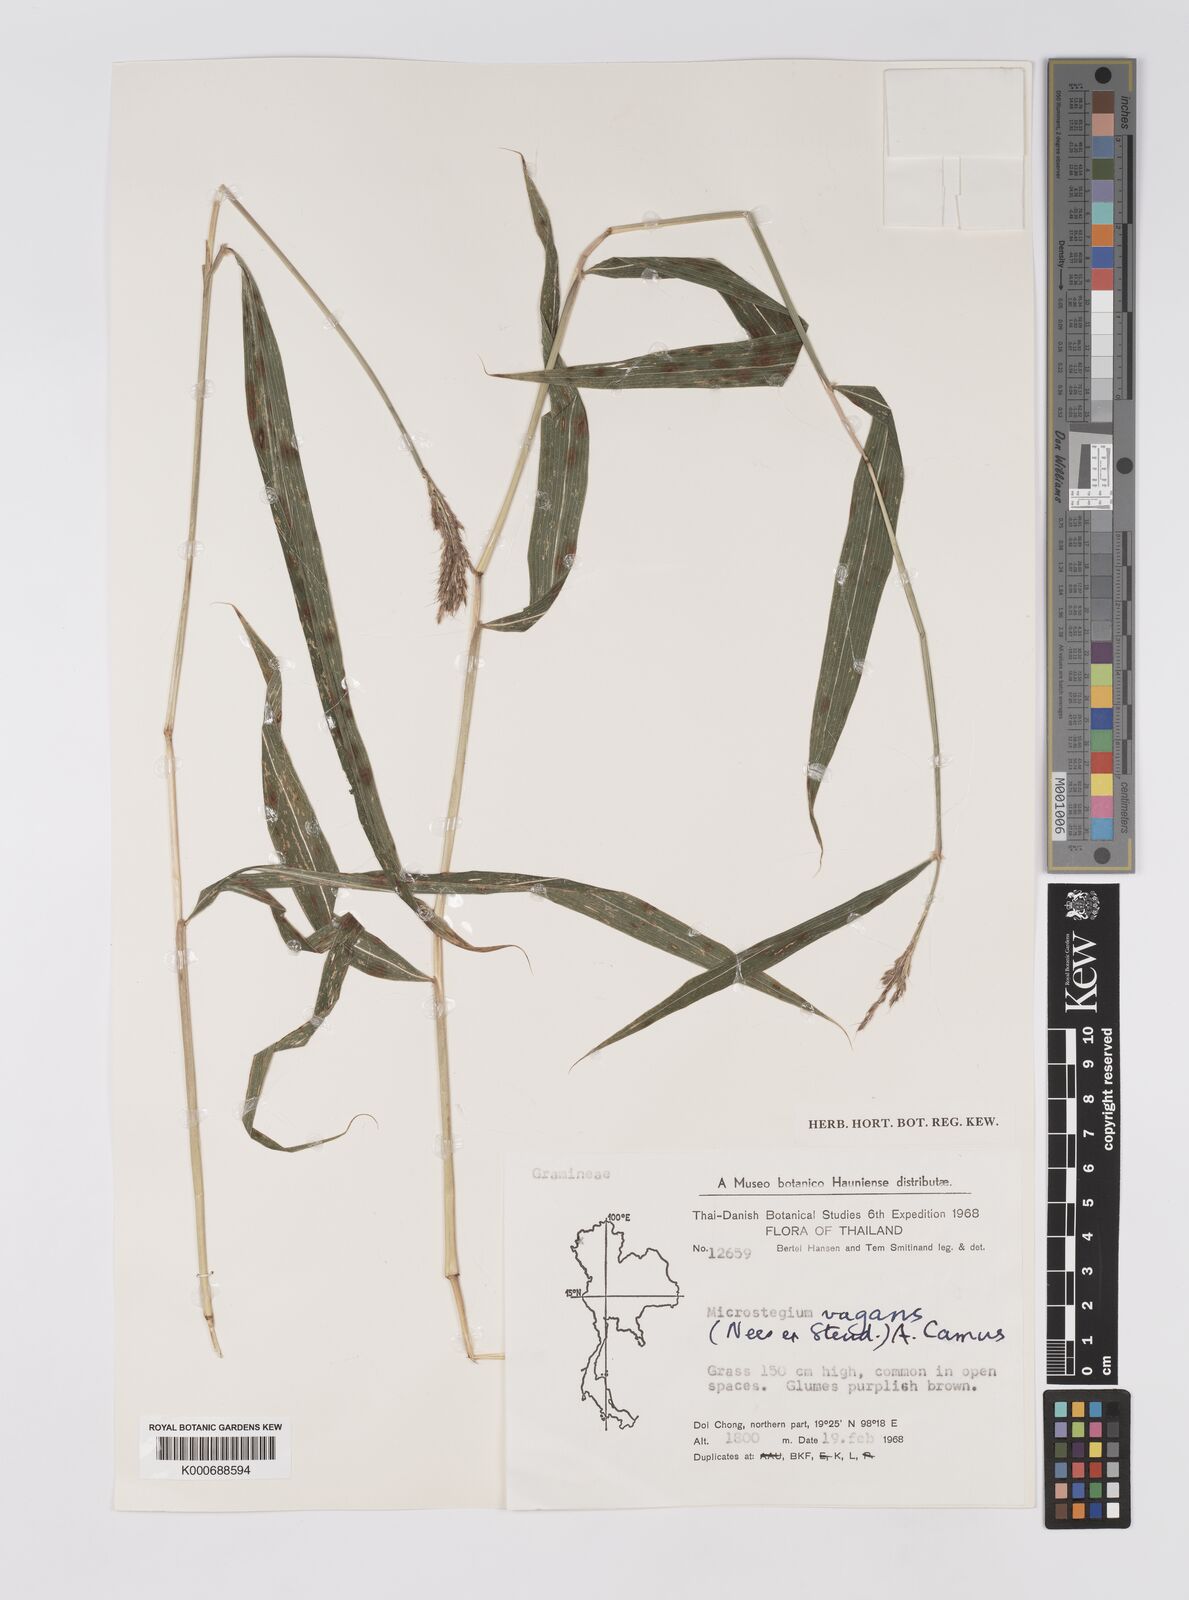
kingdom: Plantae
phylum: Tracheophyta
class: Liliopsida
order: Poales
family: Poaceae
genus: Microstegium
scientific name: Microstegium fasciculatum
